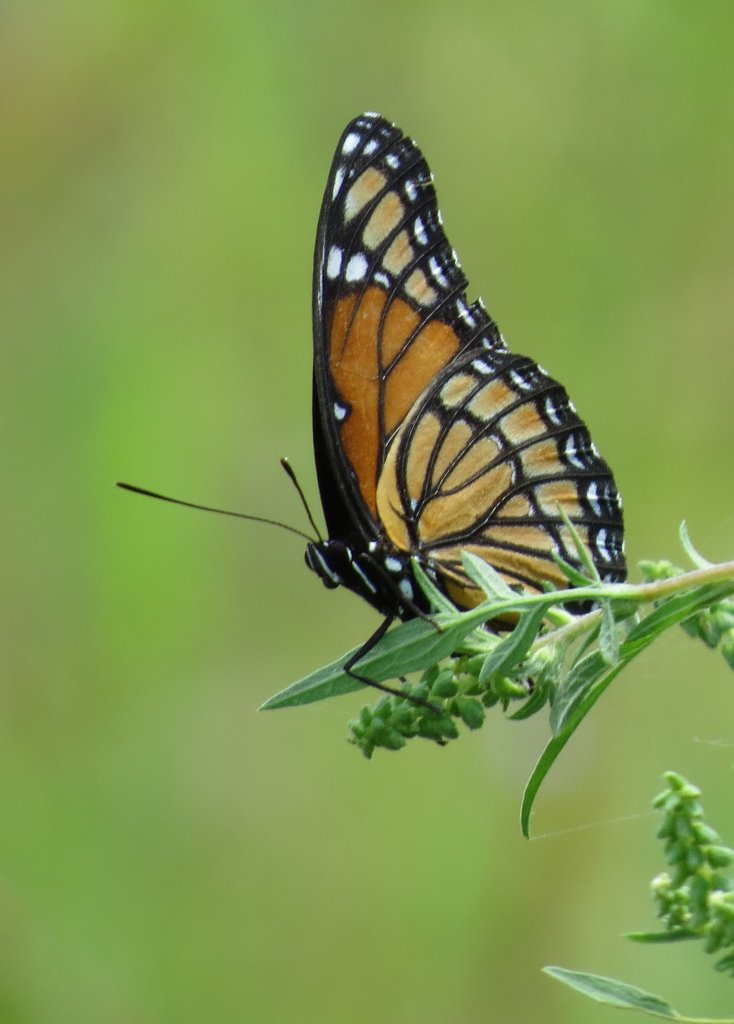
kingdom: Animalia
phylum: Arthropoda
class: Insecta
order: Lepidoptera
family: Nymphalidae
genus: Limenitis
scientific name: Limenitis archippus
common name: Viceroy
